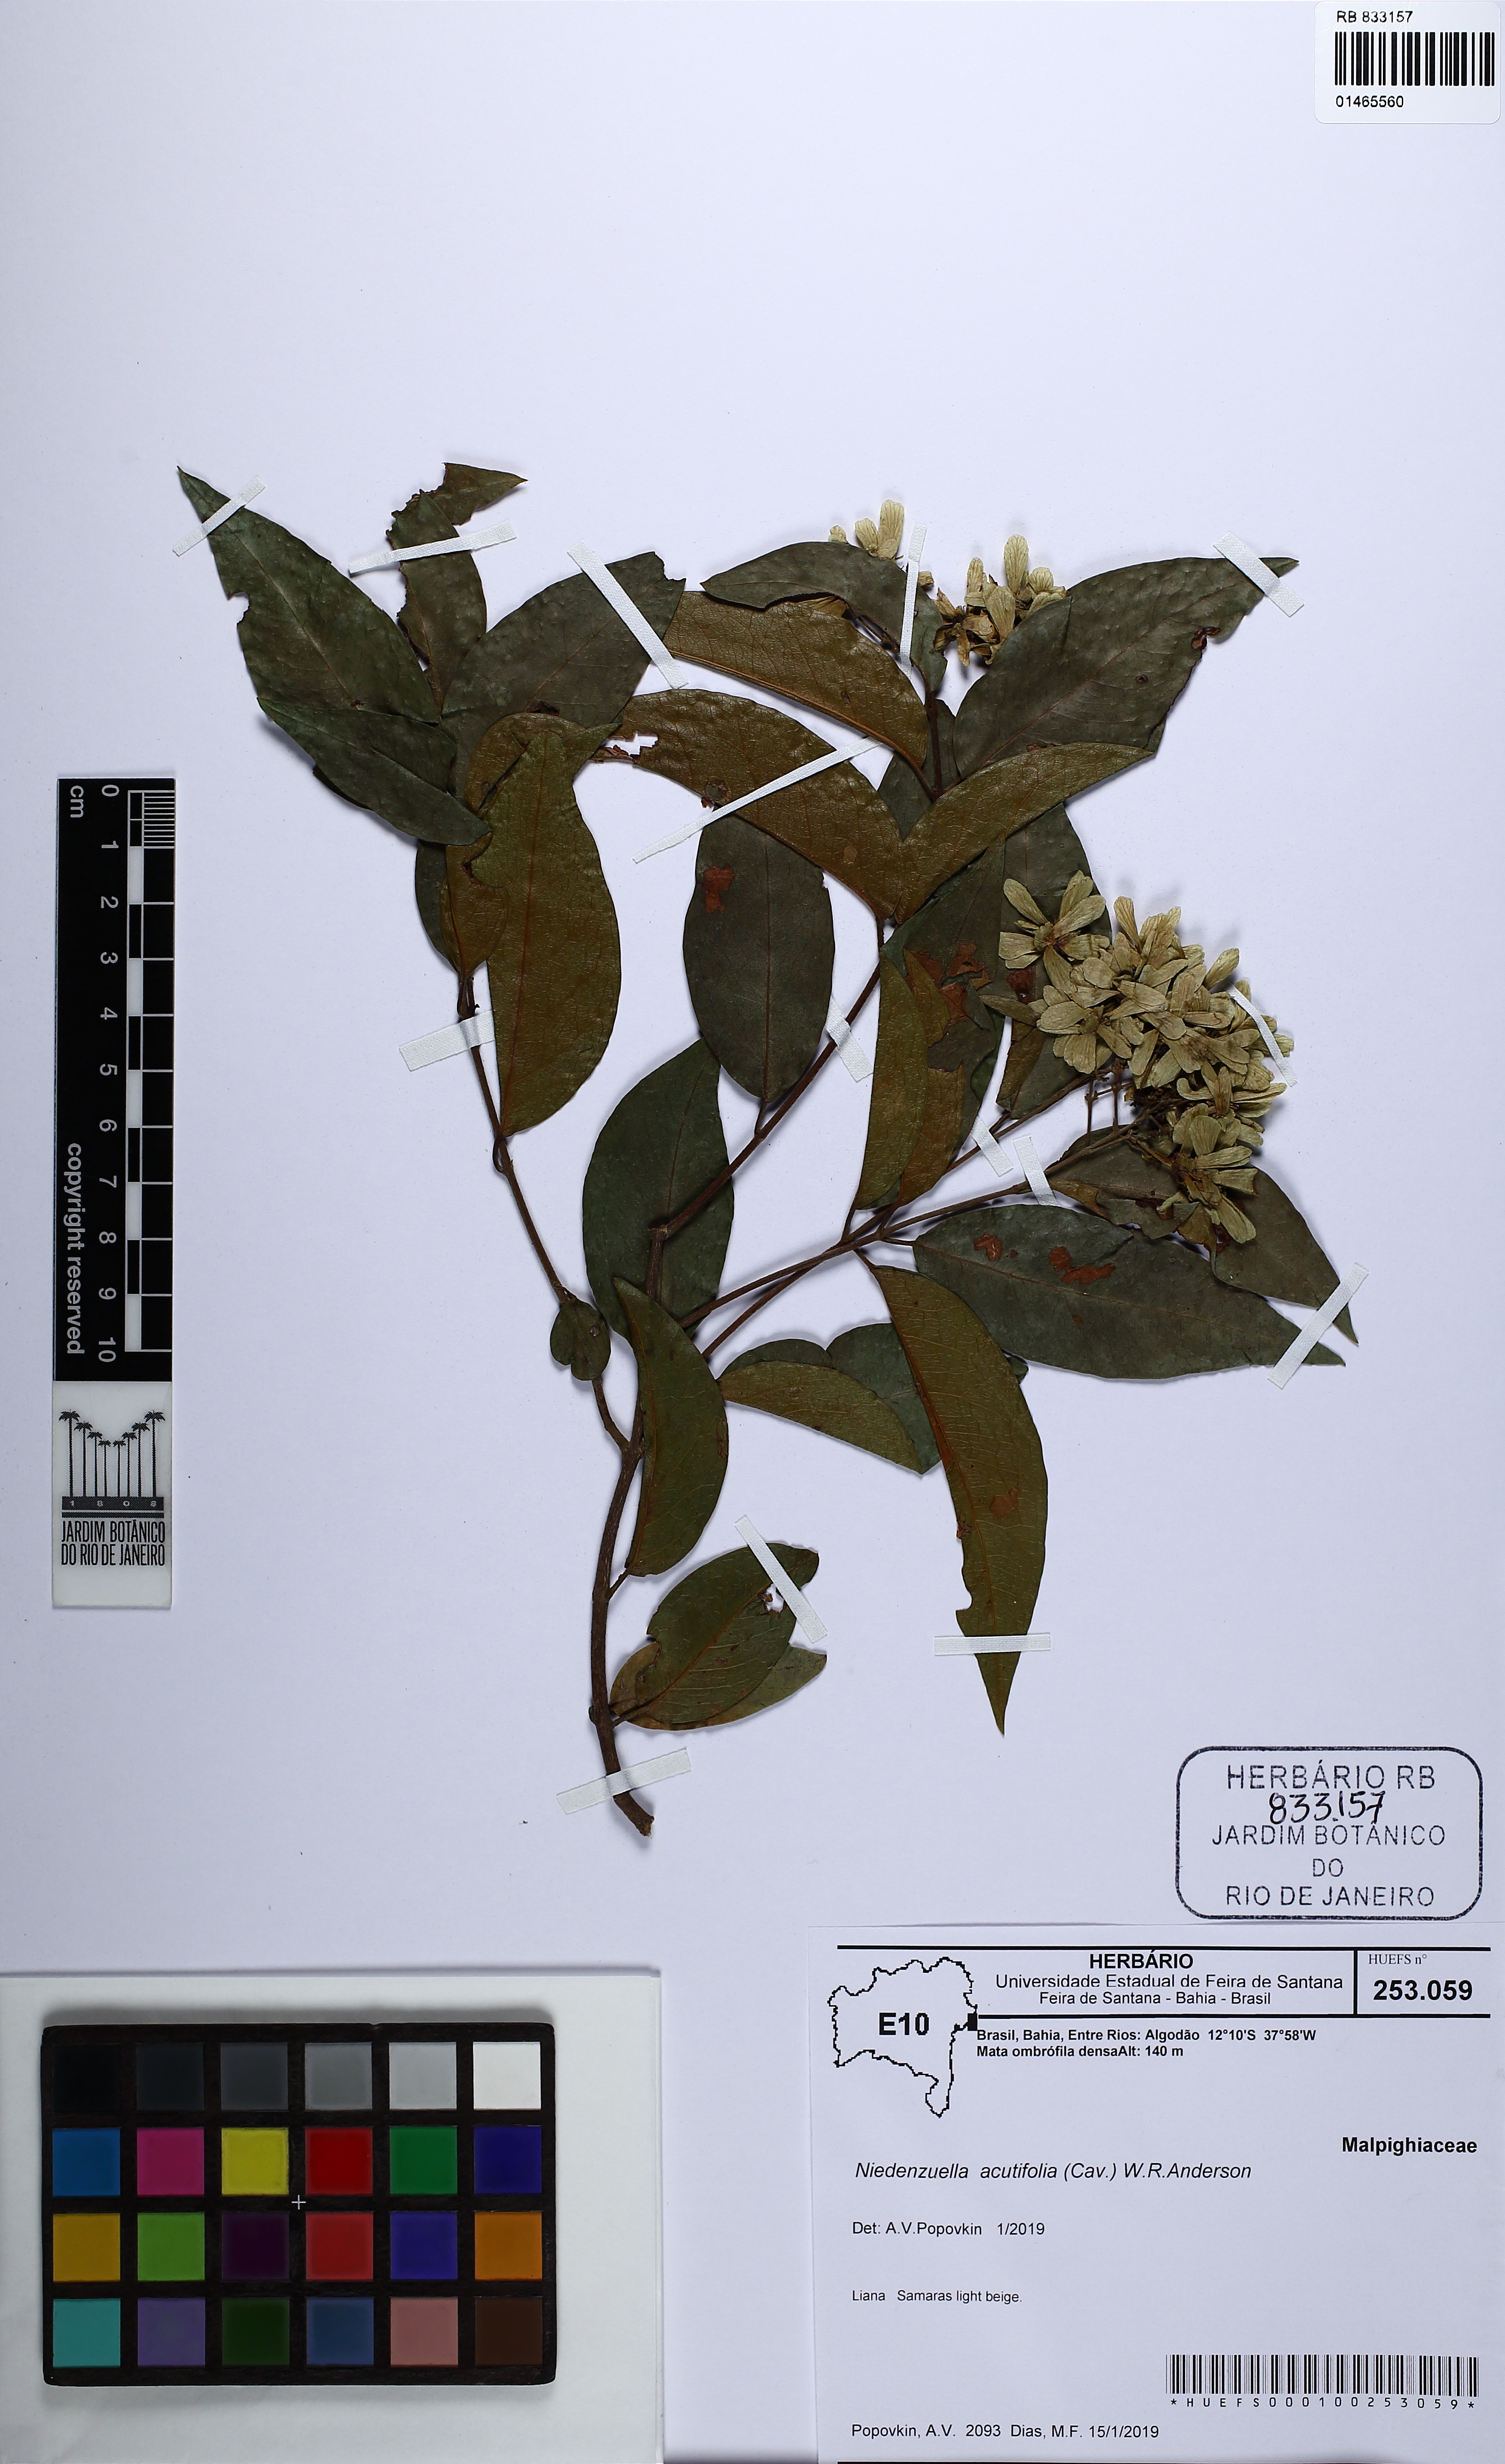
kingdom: Plantae
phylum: Tracheophyta
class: Magnoliopsida
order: Malpighiales
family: Malpighiaceae
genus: Niedenzuella
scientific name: Niedenzuella acutifolia
